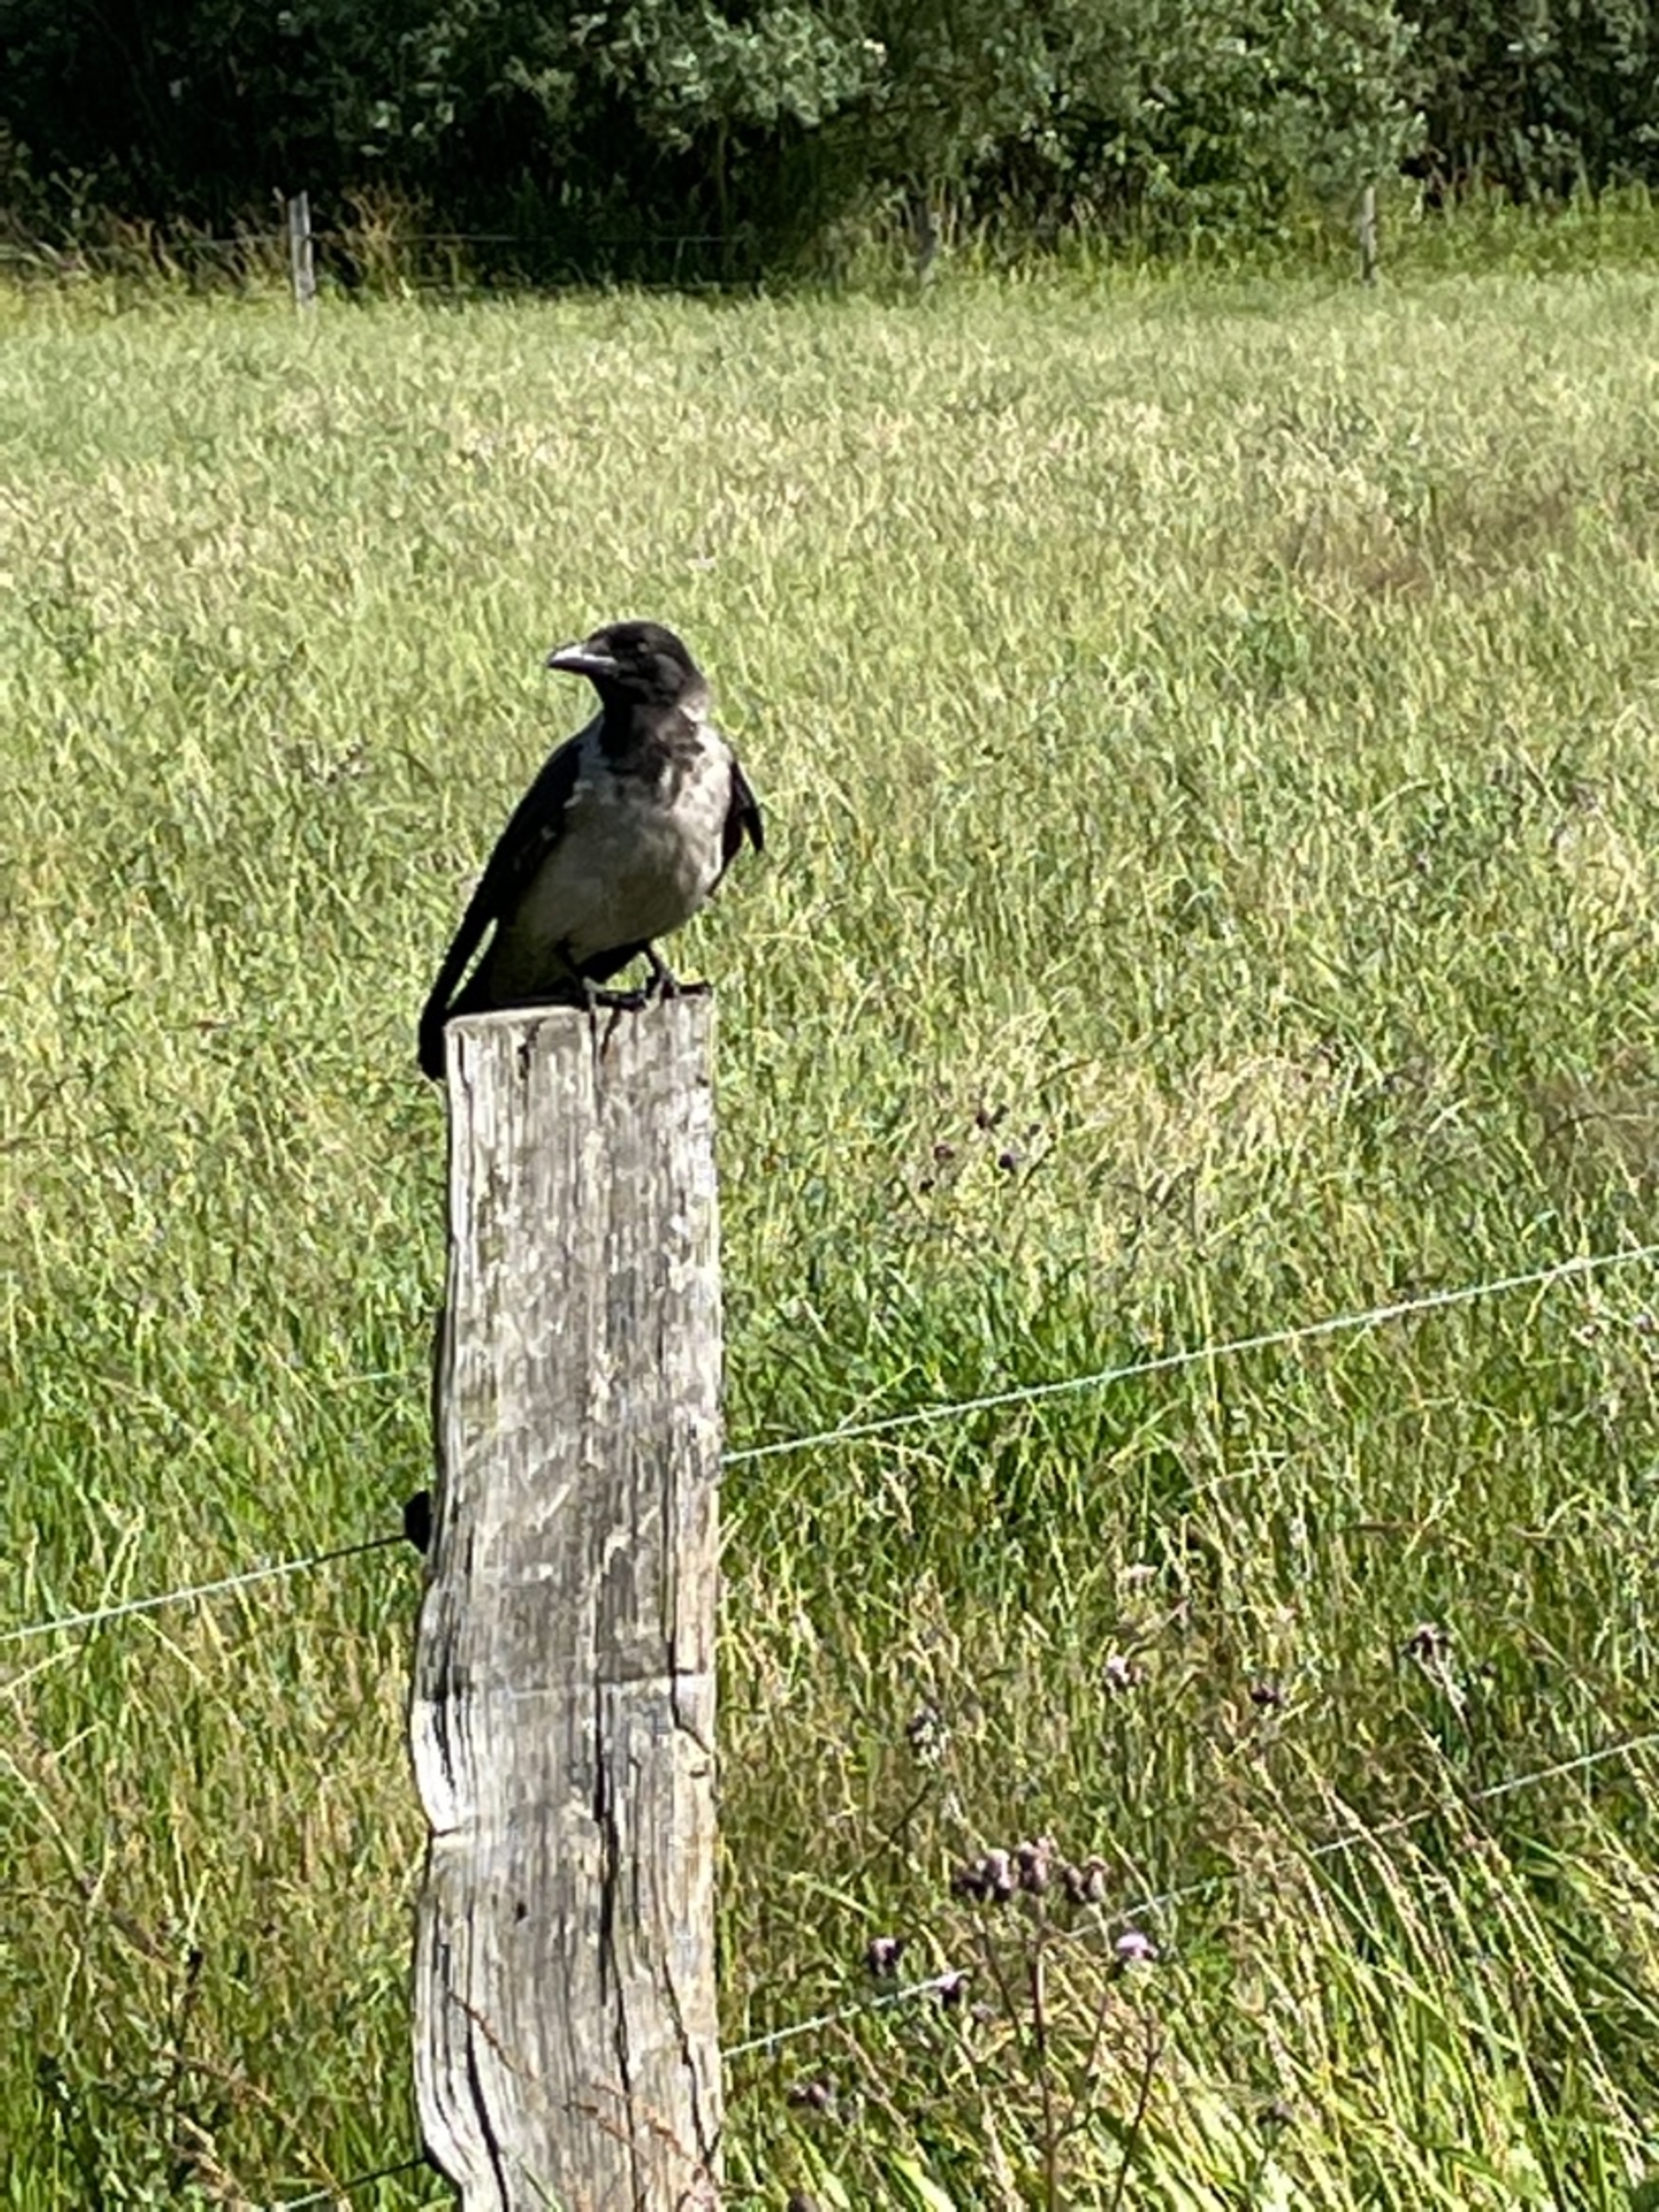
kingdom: Animalia
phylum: Chordata
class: Aves
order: Passeriformes
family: Corvidae
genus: Corvus
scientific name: Corvus cornix
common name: Gråkrage
